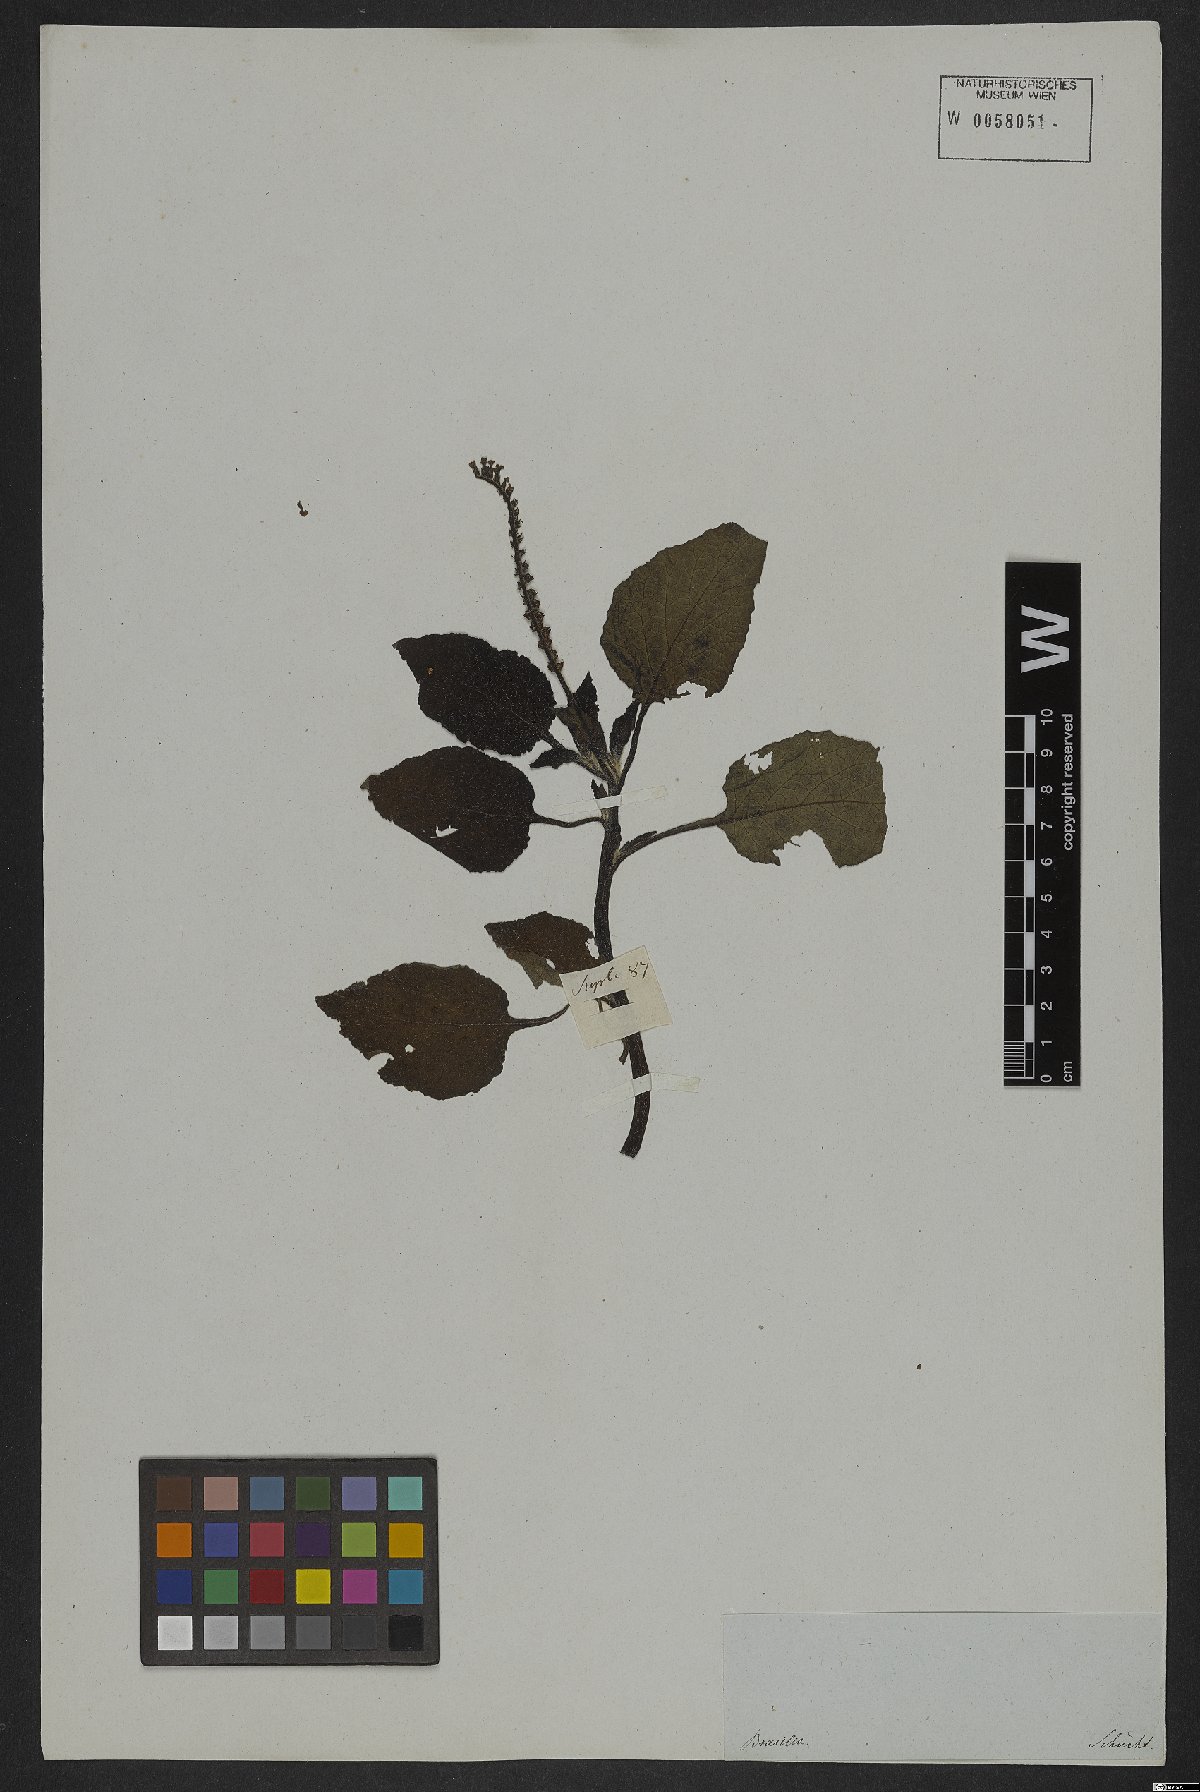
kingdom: Plantae
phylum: Tracheophyta
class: Magnoliopsida
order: Boraginales
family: Heliotropiaceae
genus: Heliotropium
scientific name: Heliotropium indicum
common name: Indian heliotrope
